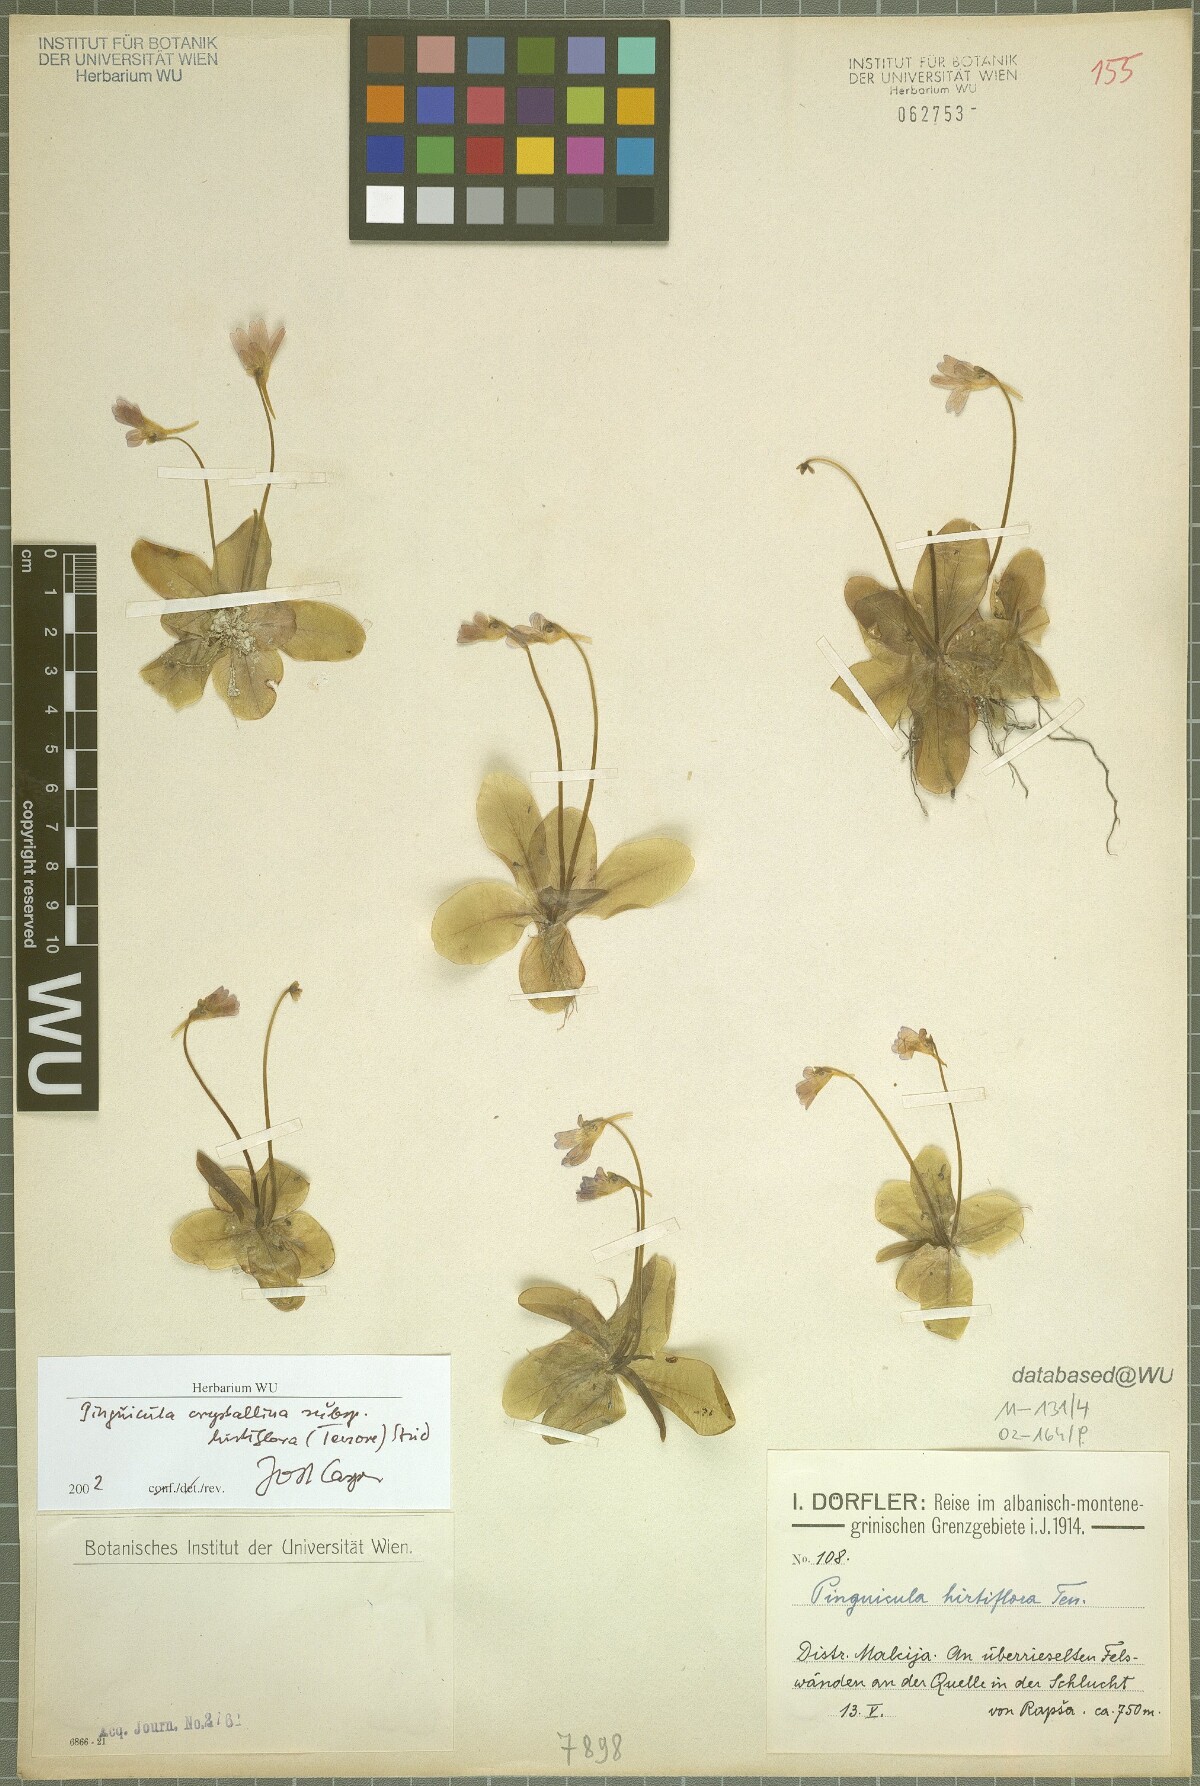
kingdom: Plantae
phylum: Tracheophyta
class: Magnoliopsida
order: Lamiales
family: Lentibulariaceae
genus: Pinguicula
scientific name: Pinguicula crystallina
